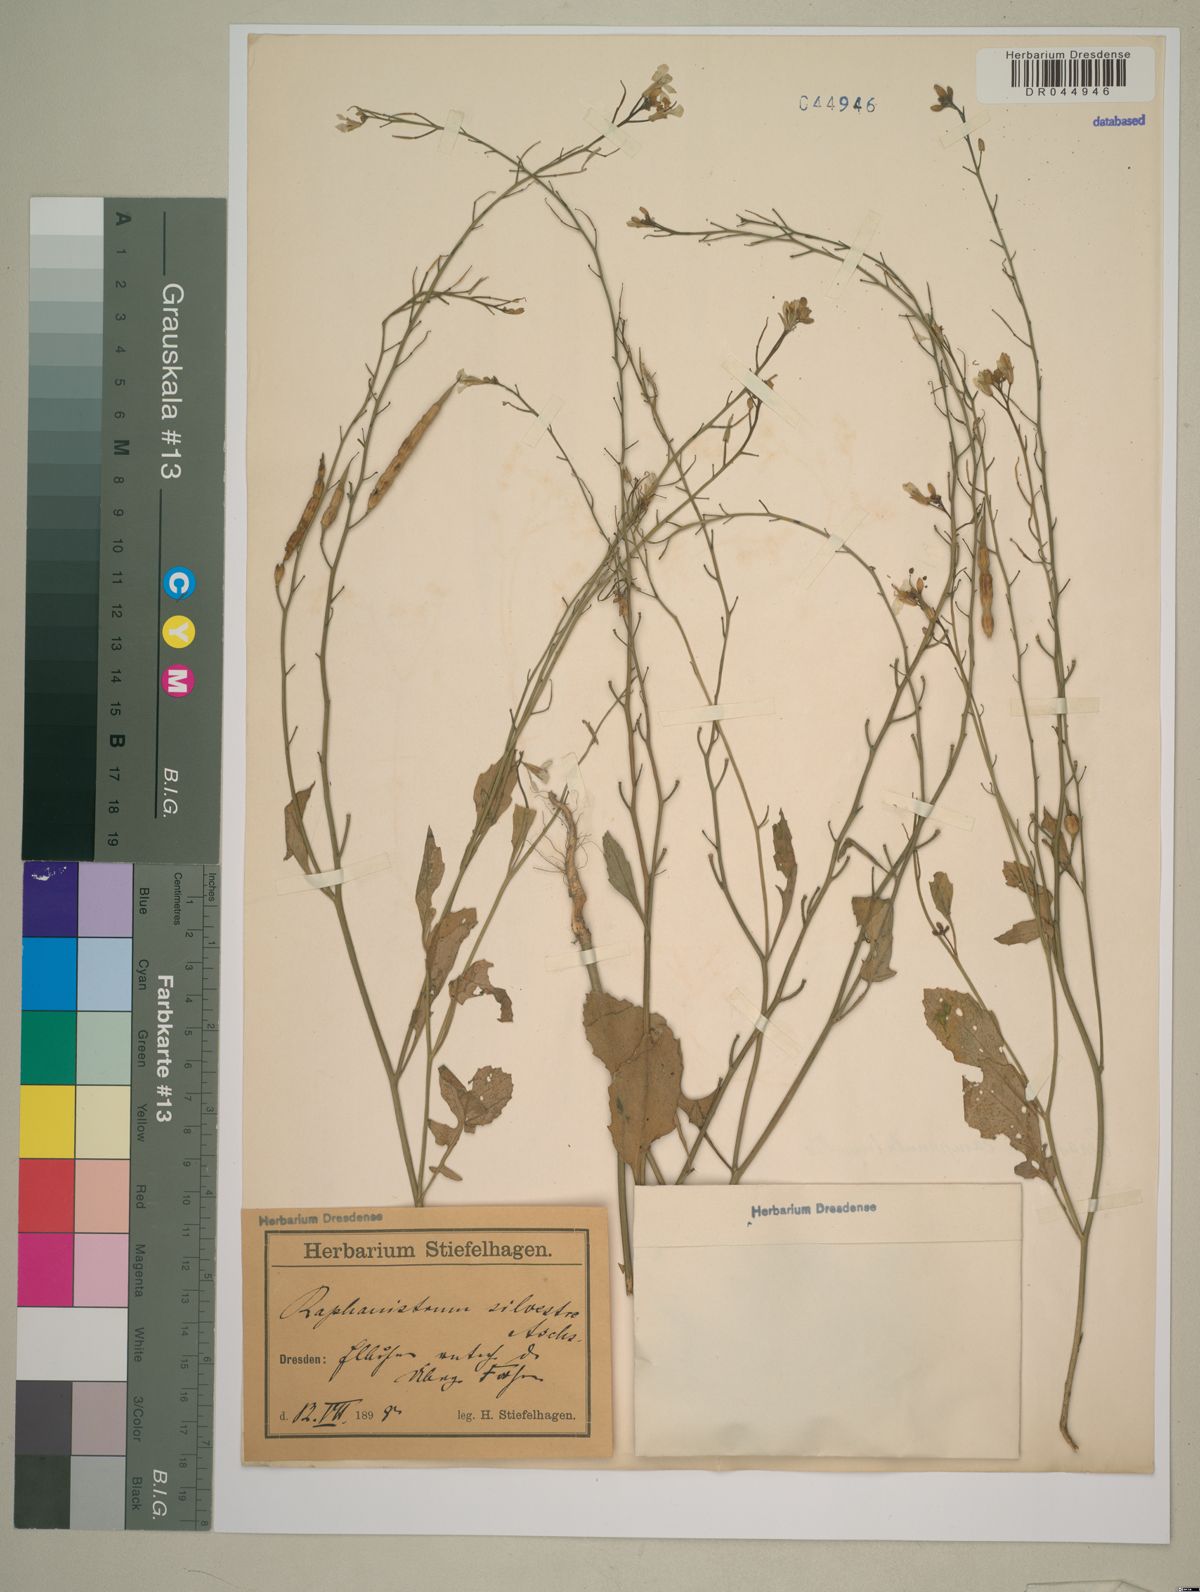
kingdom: Plantae
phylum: Tracheophyta
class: Magnoliopsida
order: Brassicales
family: Brassicaceae
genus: Raphanus
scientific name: Raphanus raphanistrum
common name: Wild radish
